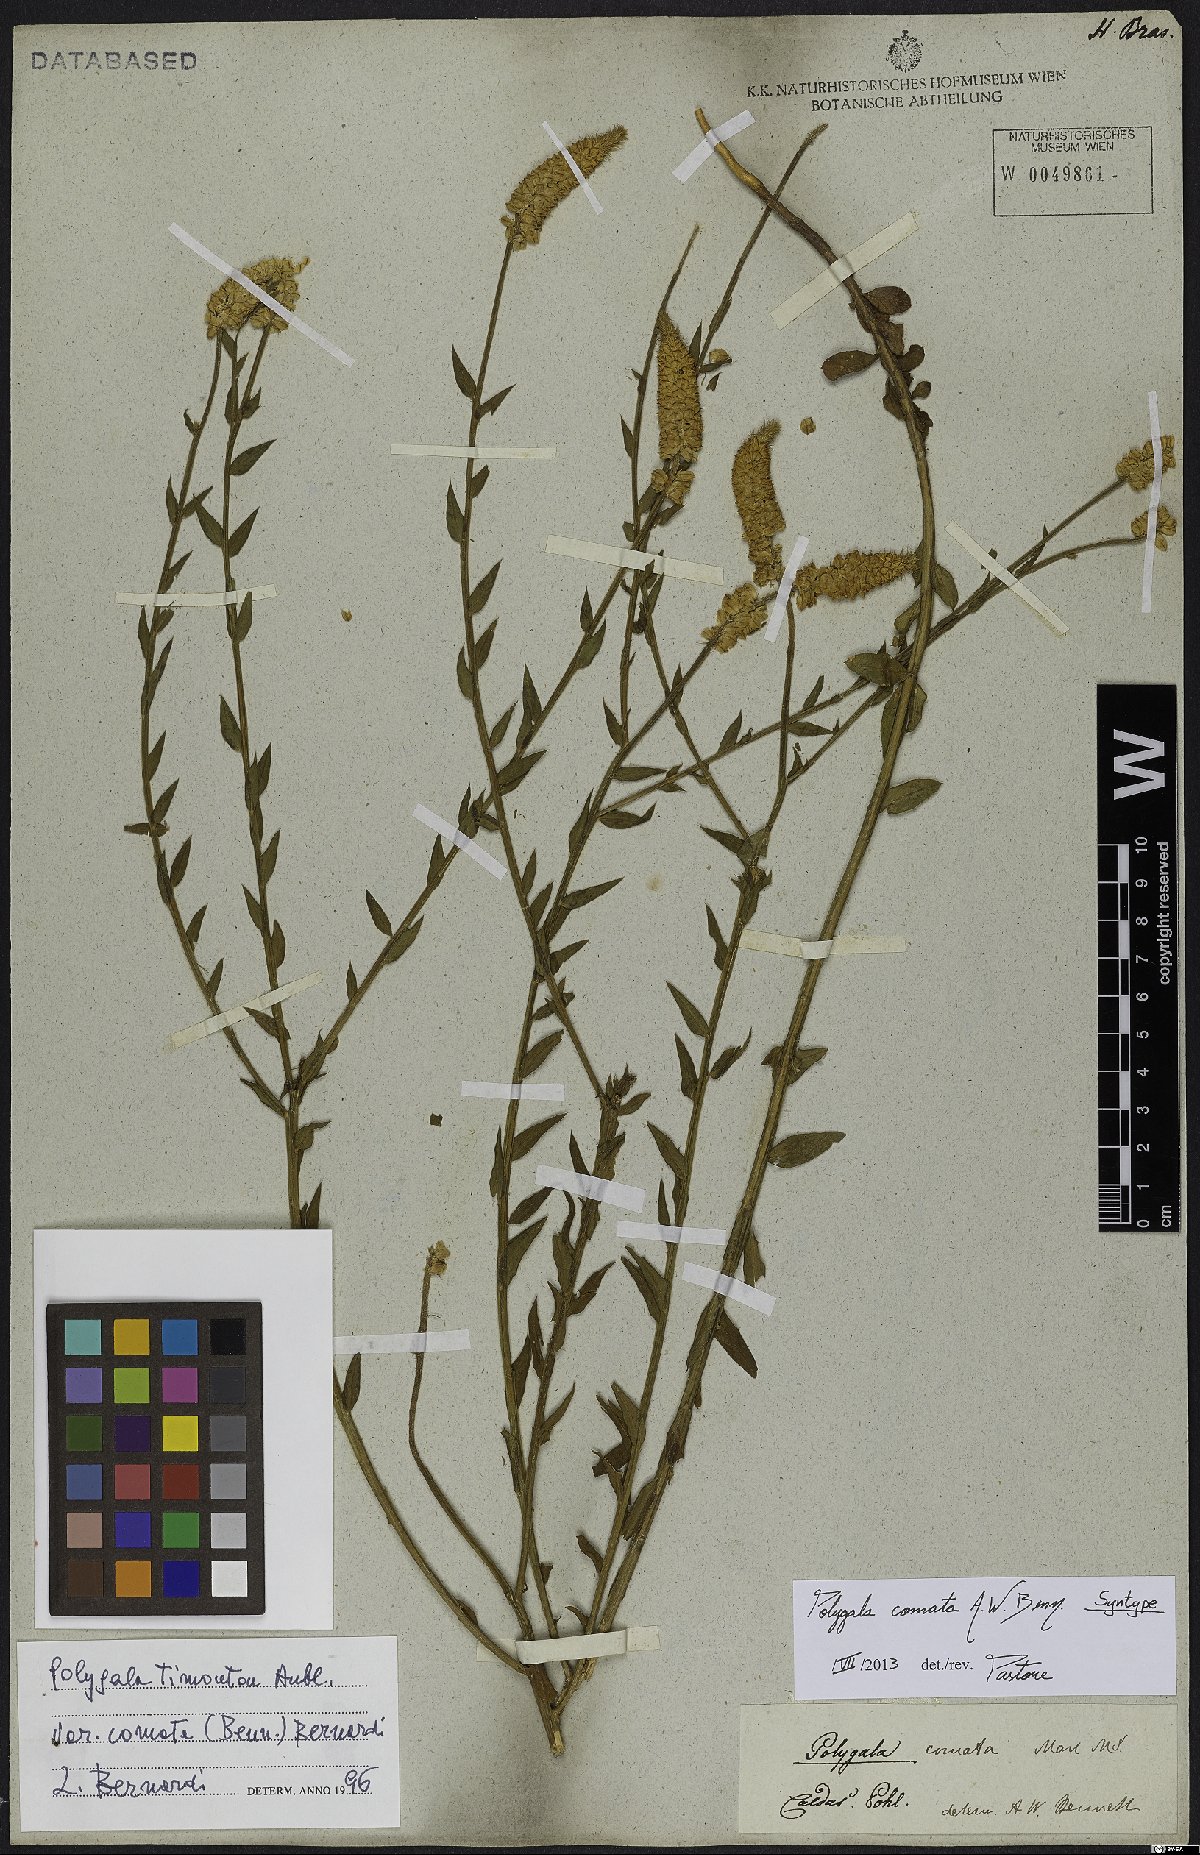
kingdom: Plantae
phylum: Tracheophyta
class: Magnoliopsida
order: Fabales
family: Polygalaceae
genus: Polygala
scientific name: Polygala cuspidata
